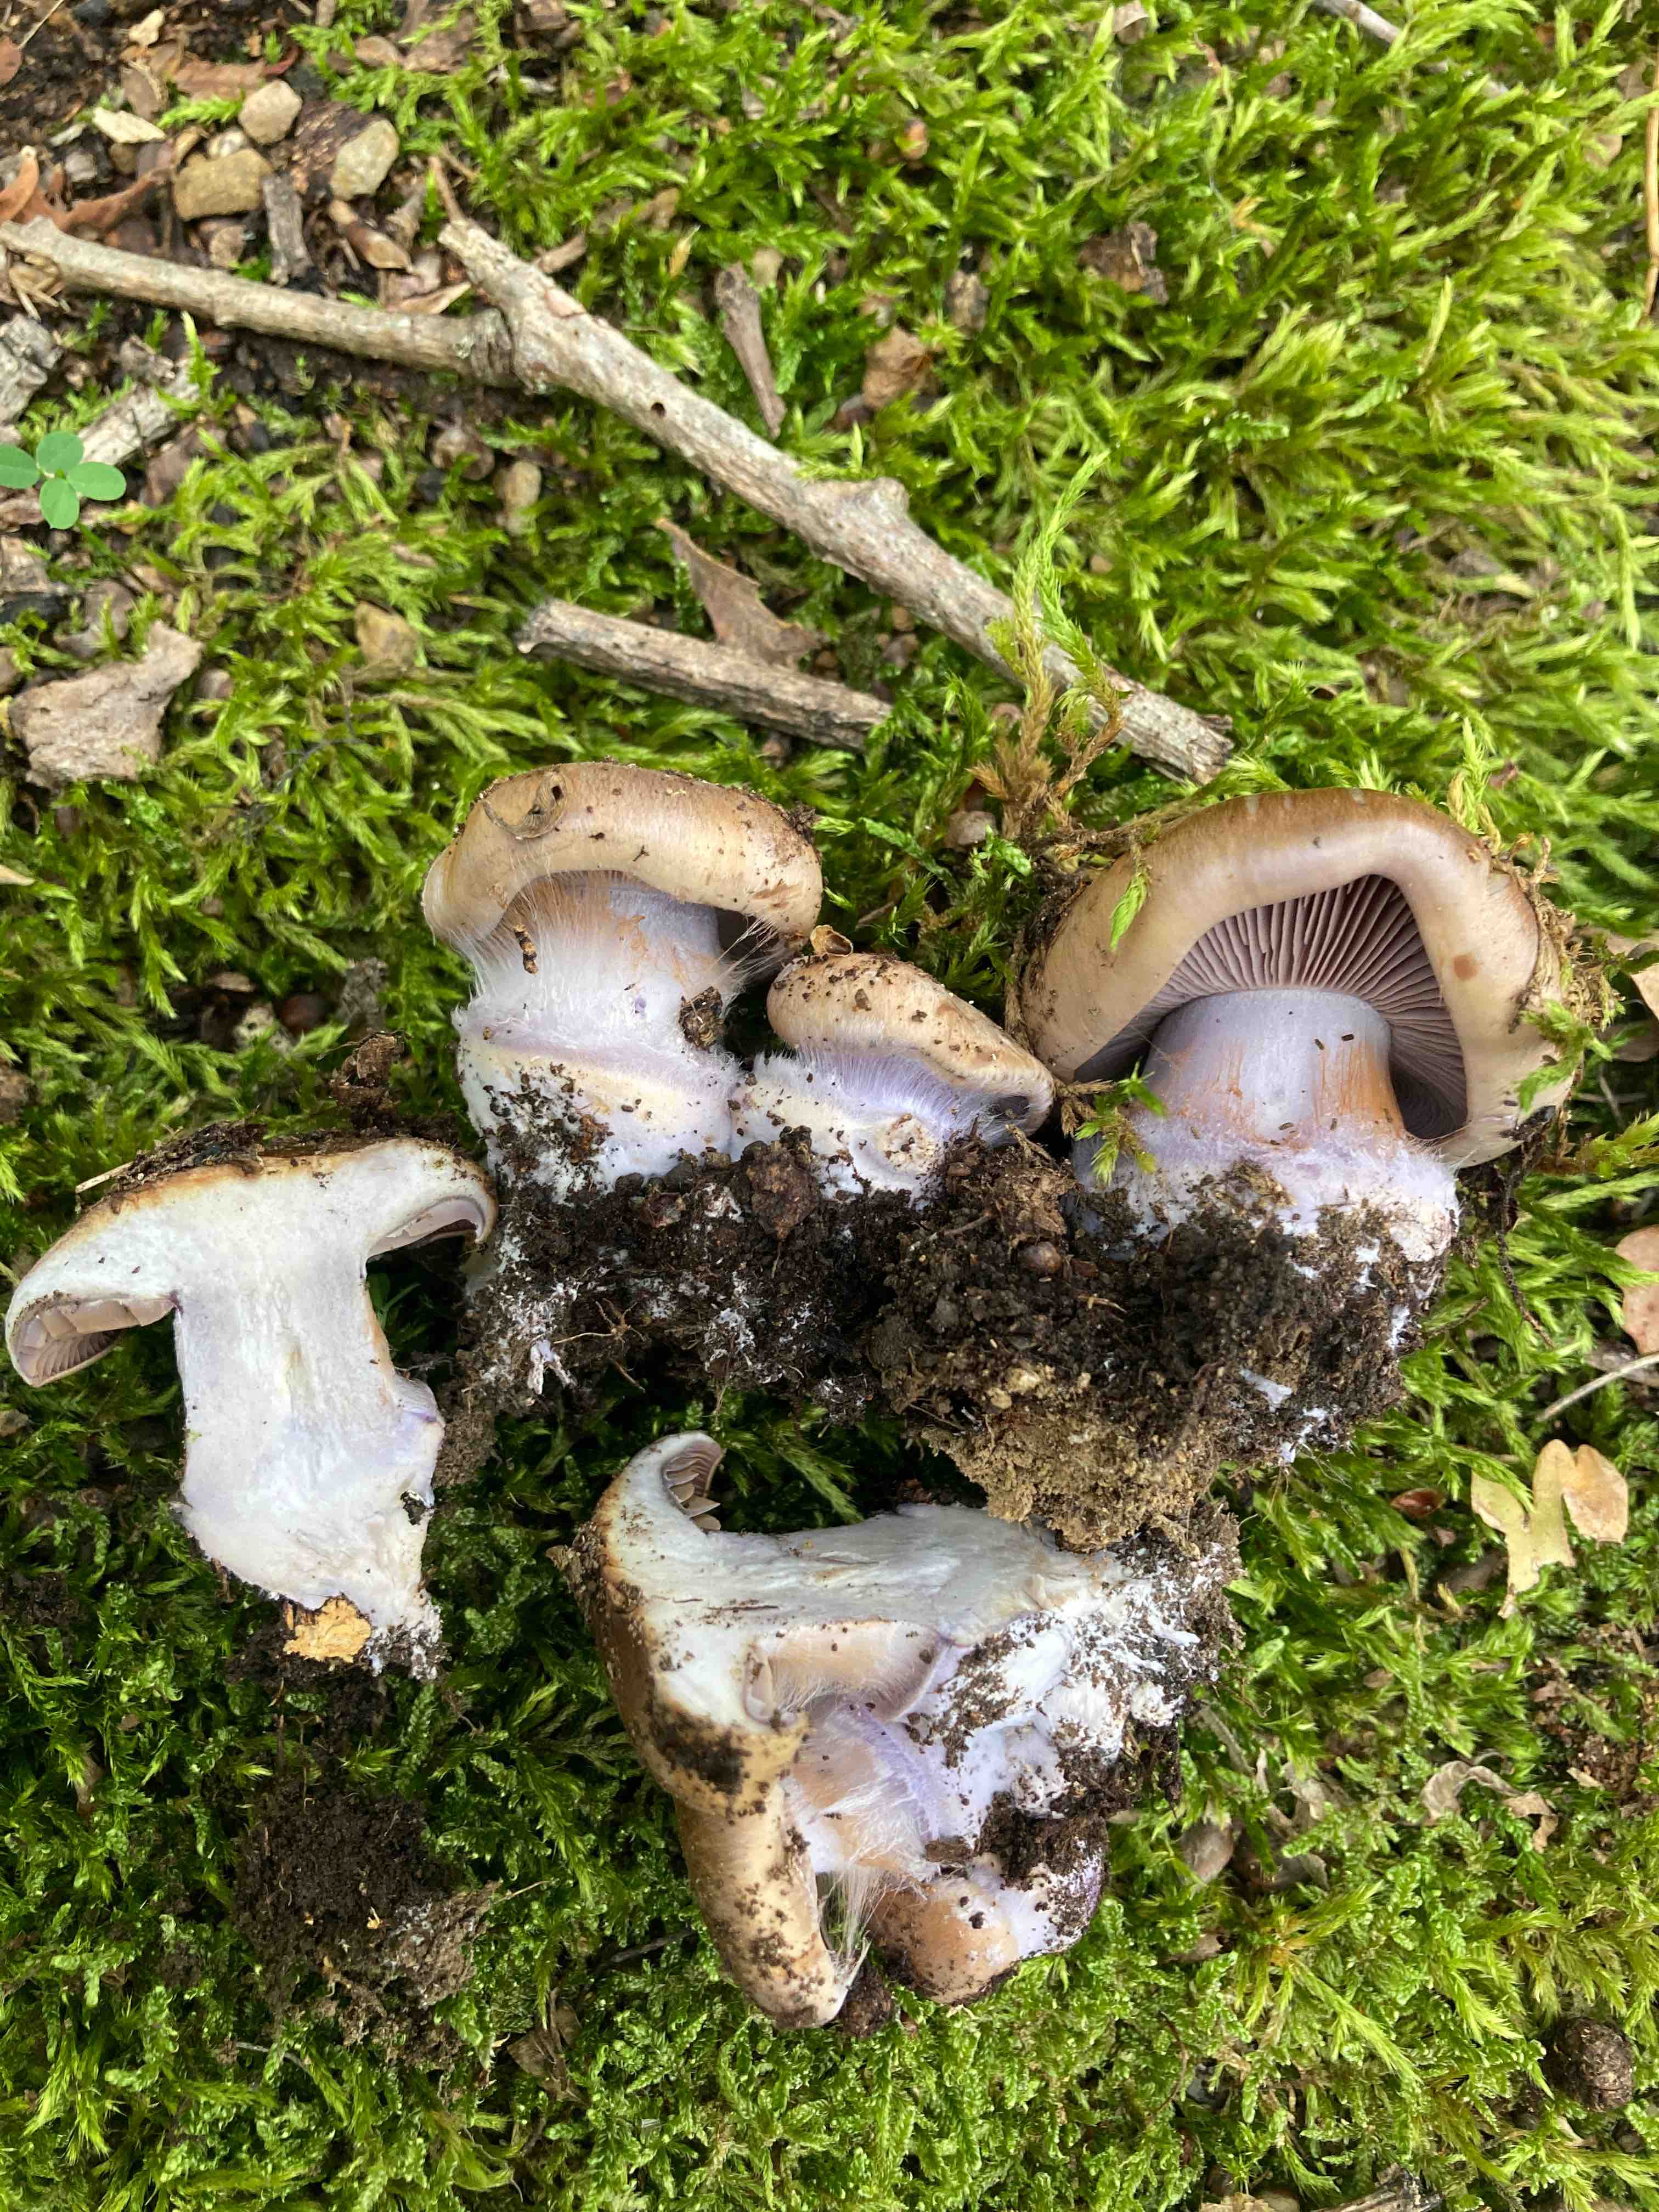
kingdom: Fungi
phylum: Basidiomycota
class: Agaricomycetes
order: Agaricales
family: Cortinariaceae
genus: Thaxterogaster
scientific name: Thaxterogaster
